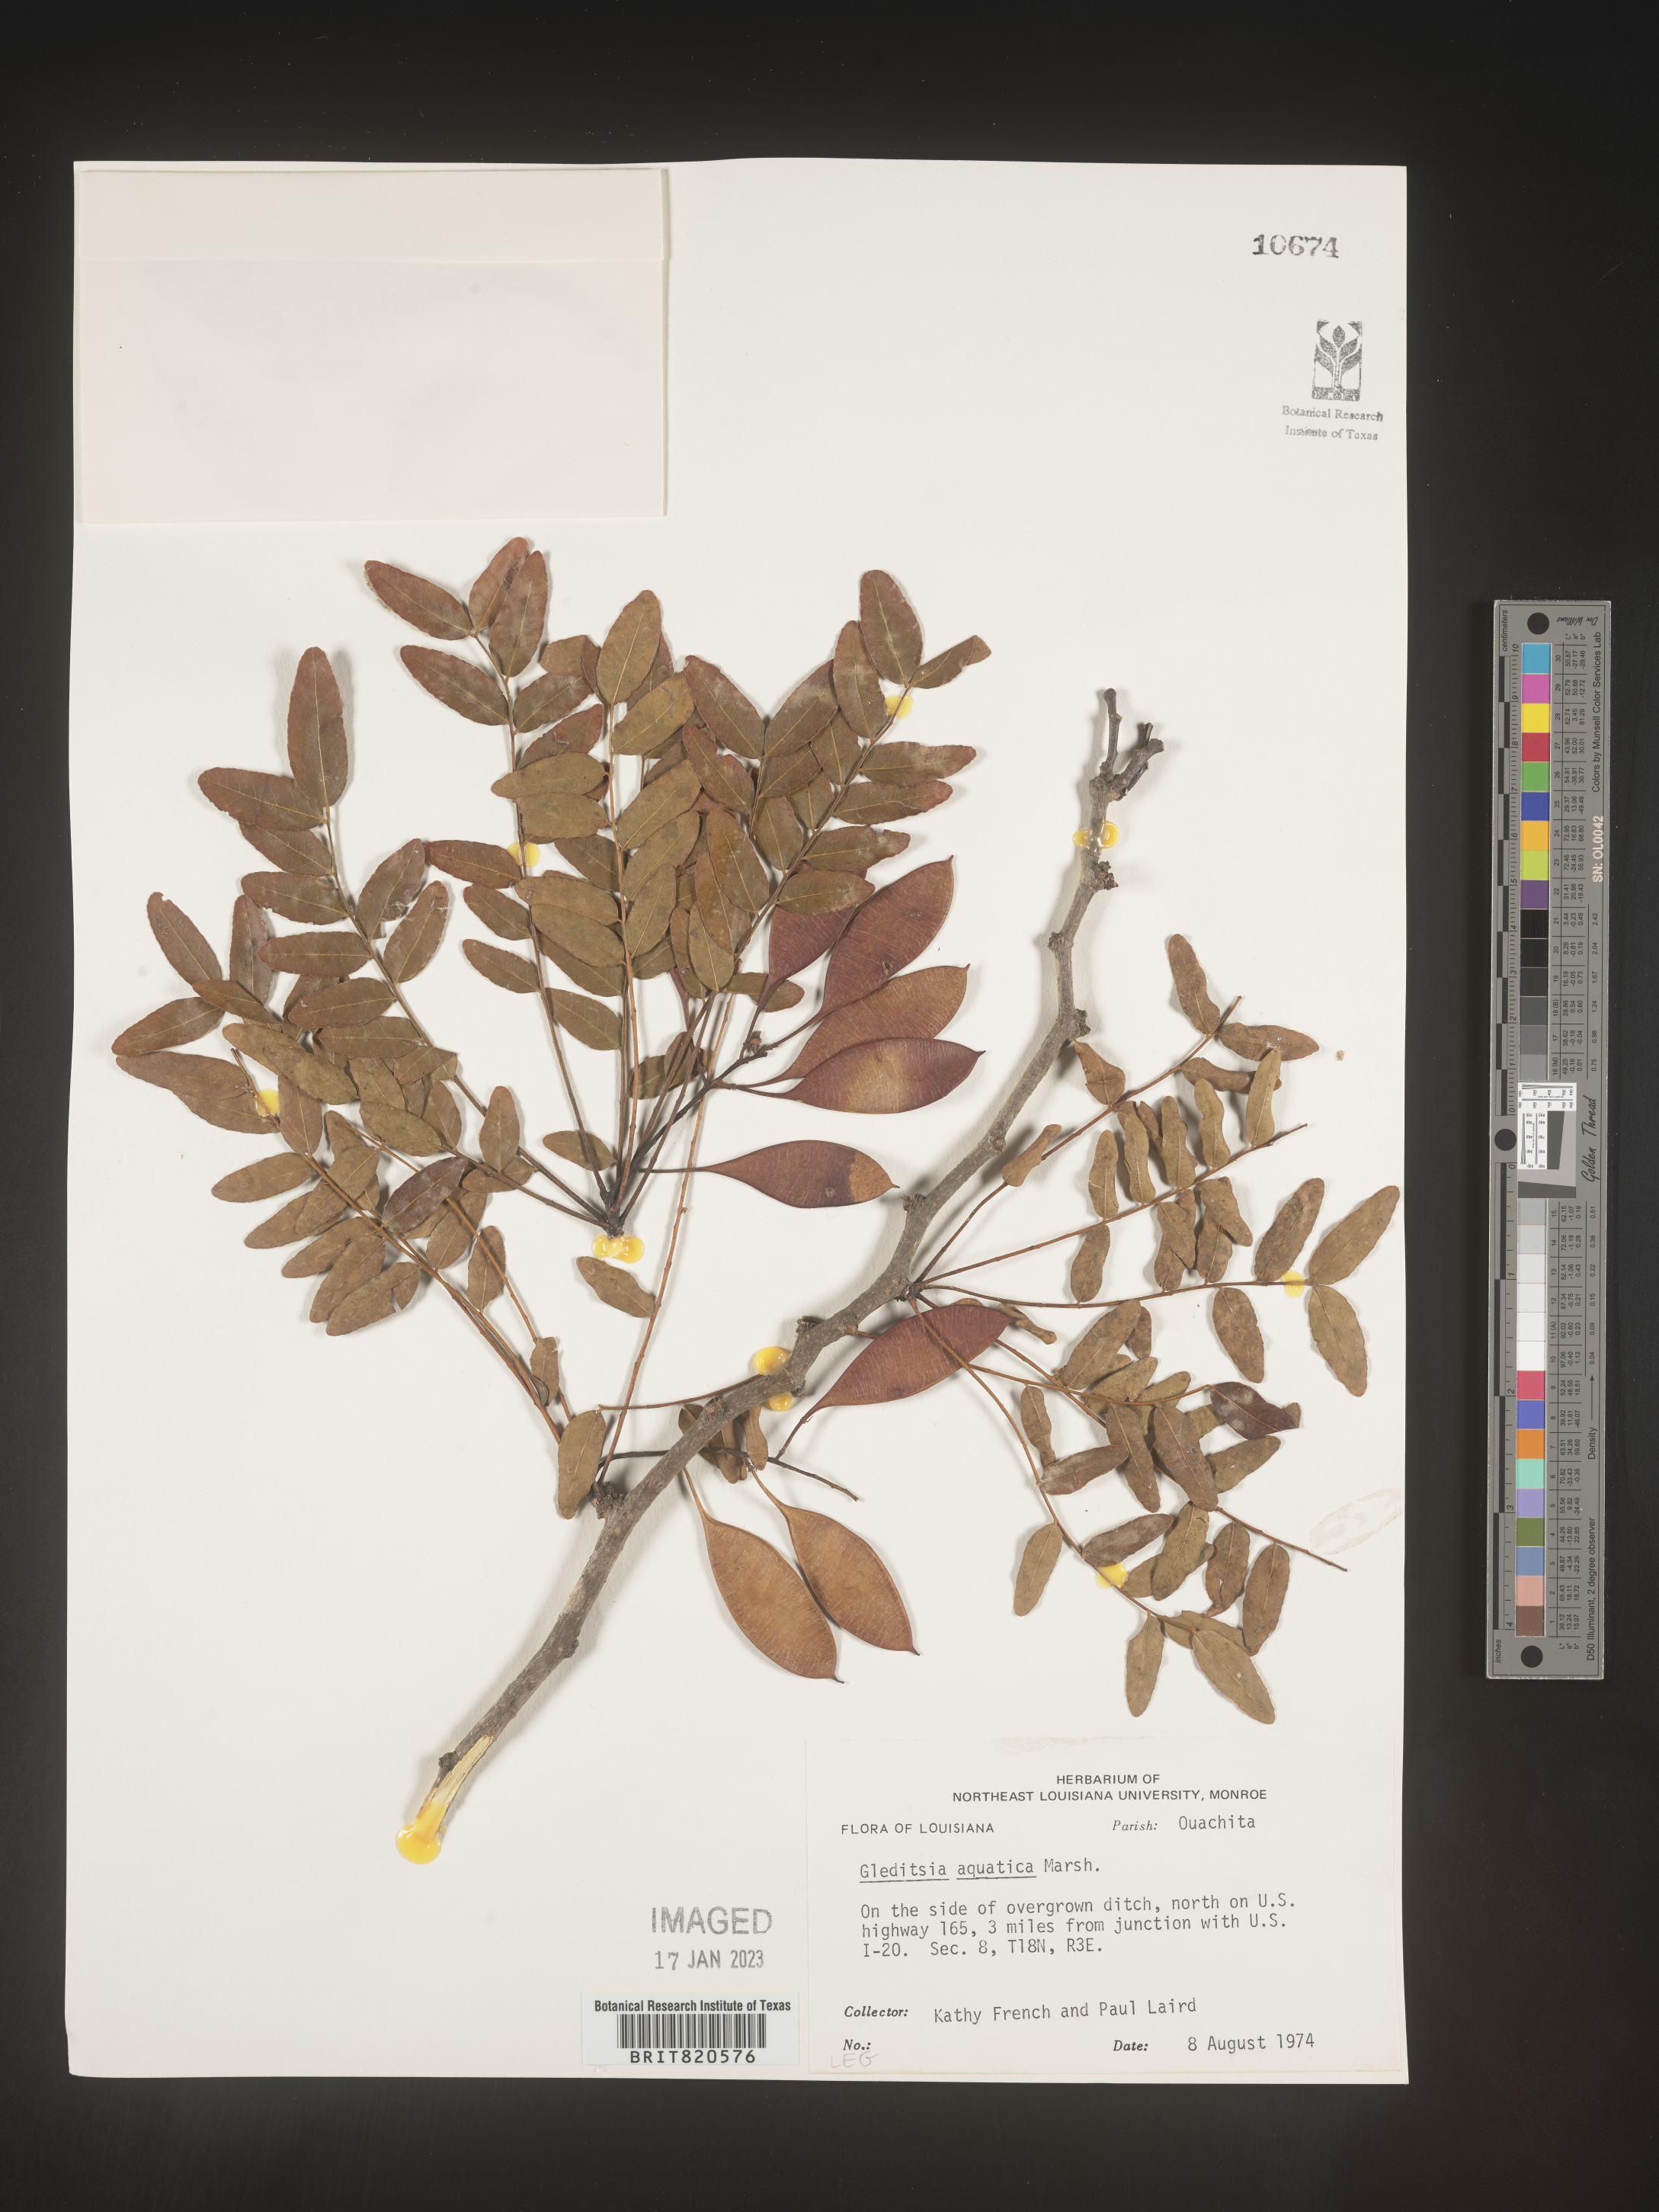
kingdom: Plantae
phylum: Tracheophyta
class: Magnoliopsida
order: Fabales
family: Fabaceae
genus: Gleditsia
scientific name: Gleditsia aquatica
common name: Swamp-locust
